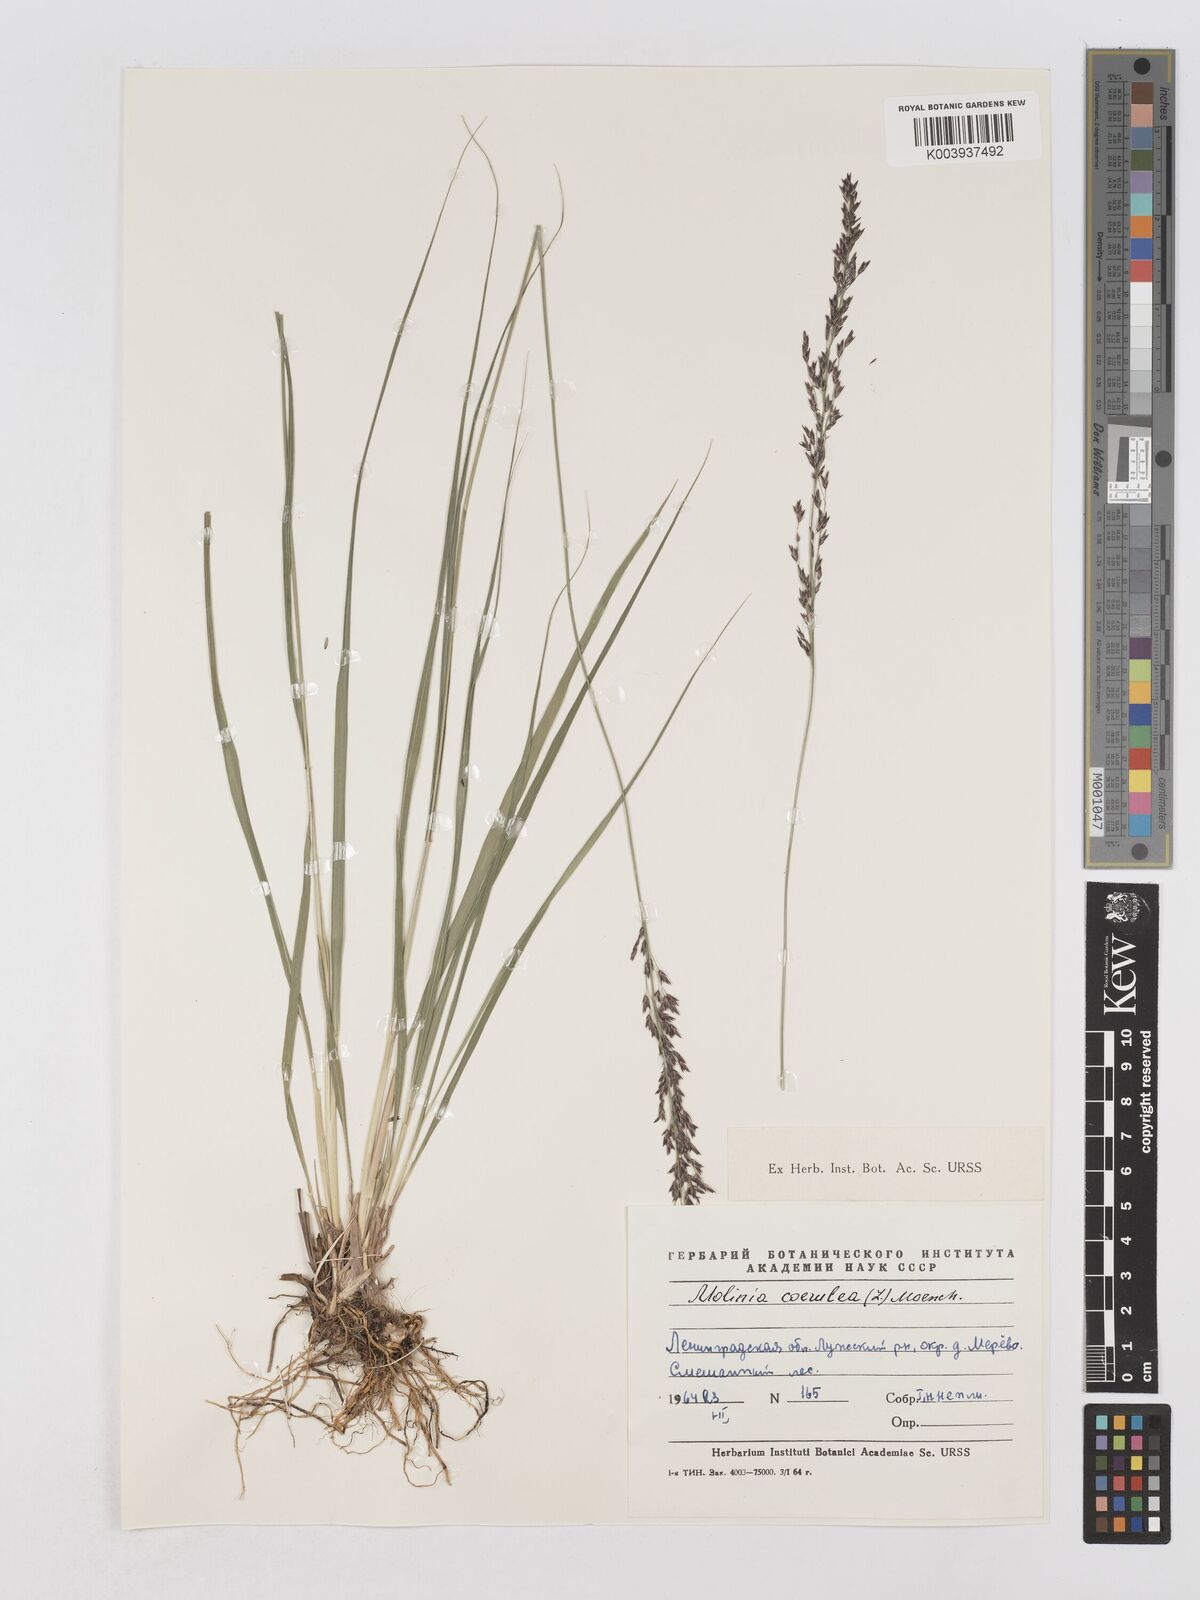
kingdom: Plantae
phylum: Tracheophyta
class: Liliopsida
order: Poales
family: Poaceae
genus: Molinia
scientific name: Molinia caerulea
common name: Purple moor-grass
